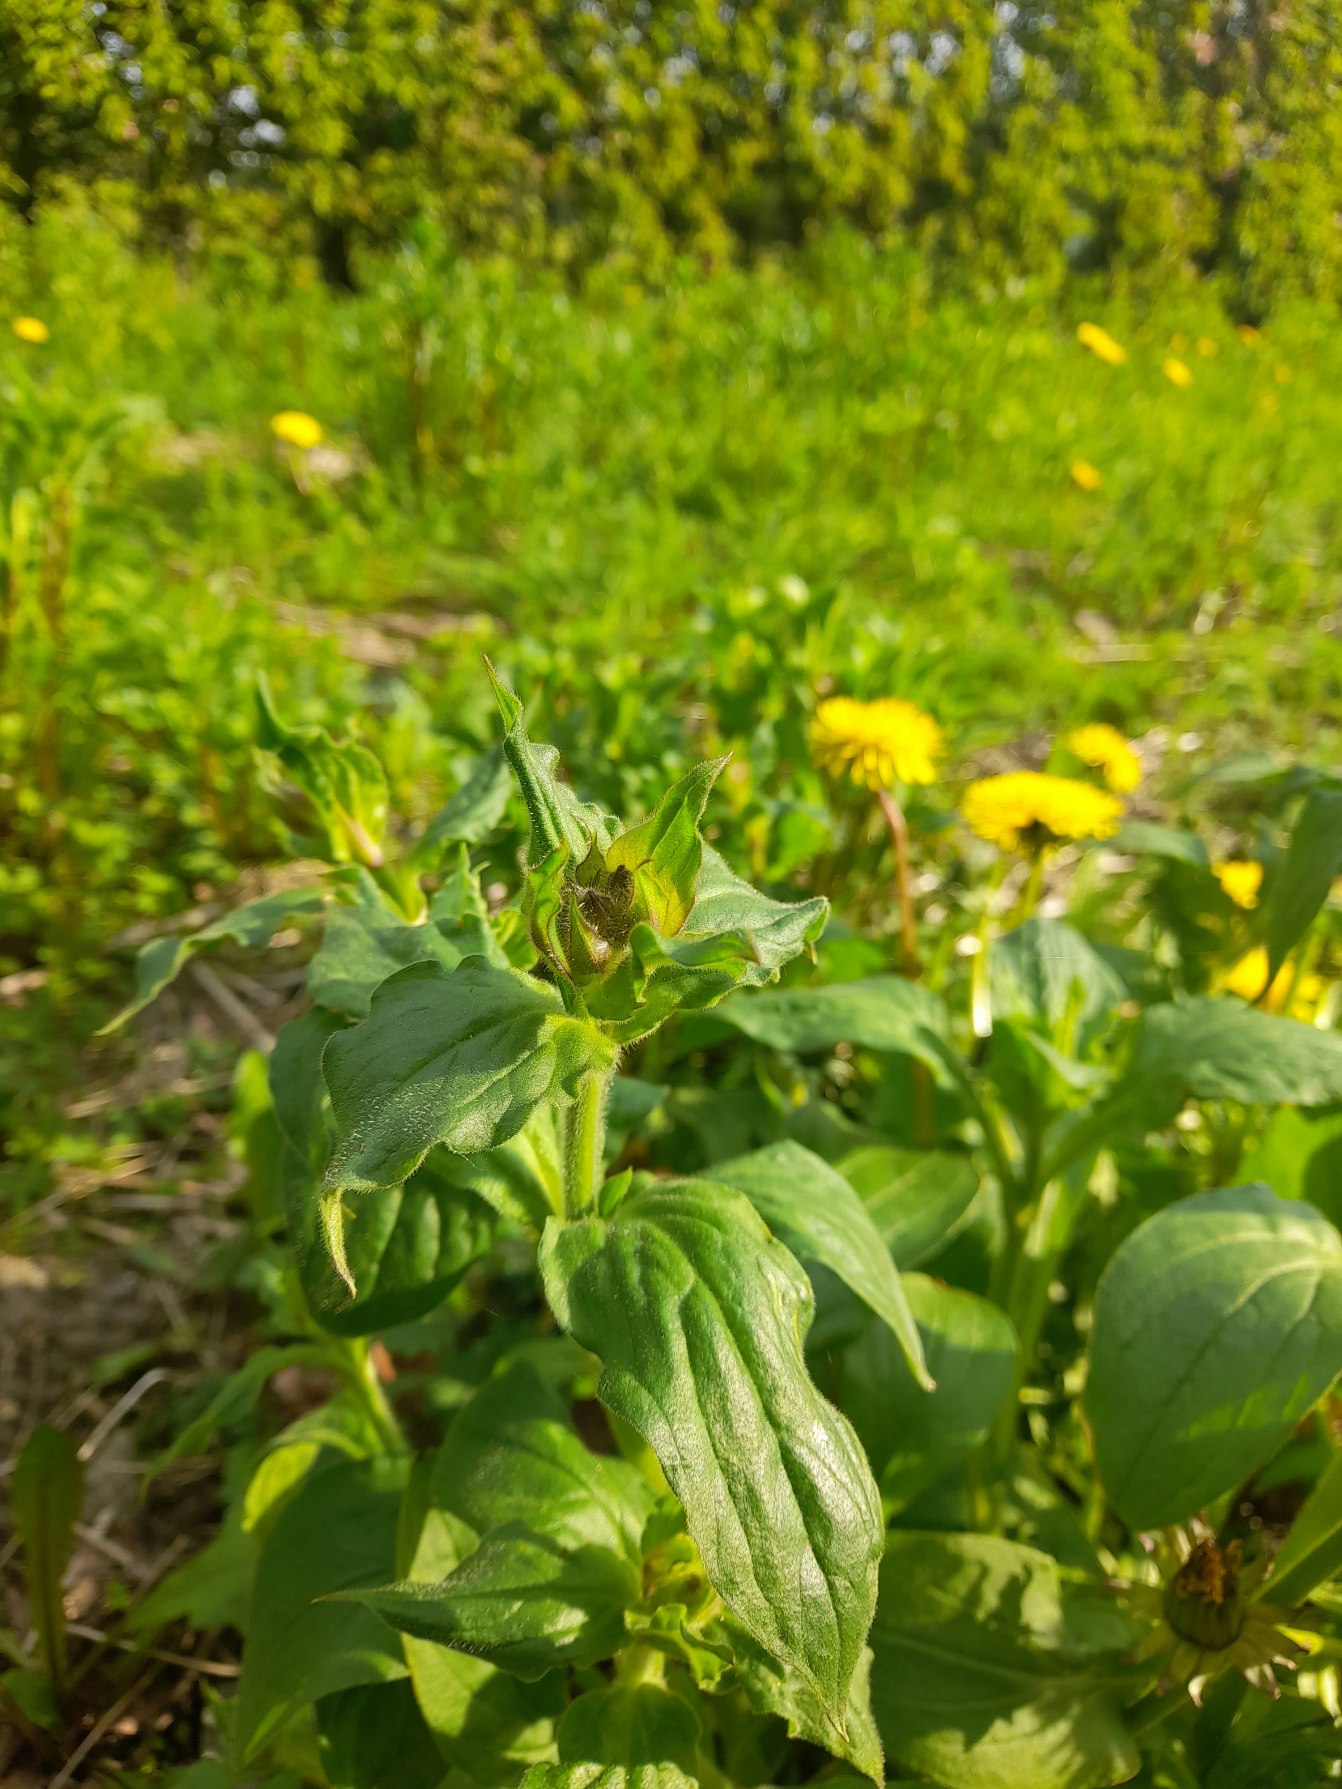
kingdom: Plantae
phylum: Tracheophyta
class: Magnoliopsida
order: Caryophyllales
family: Caryophyllaceae
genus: Silene
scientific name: Silene dioica
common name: Dagpragtstjerne
